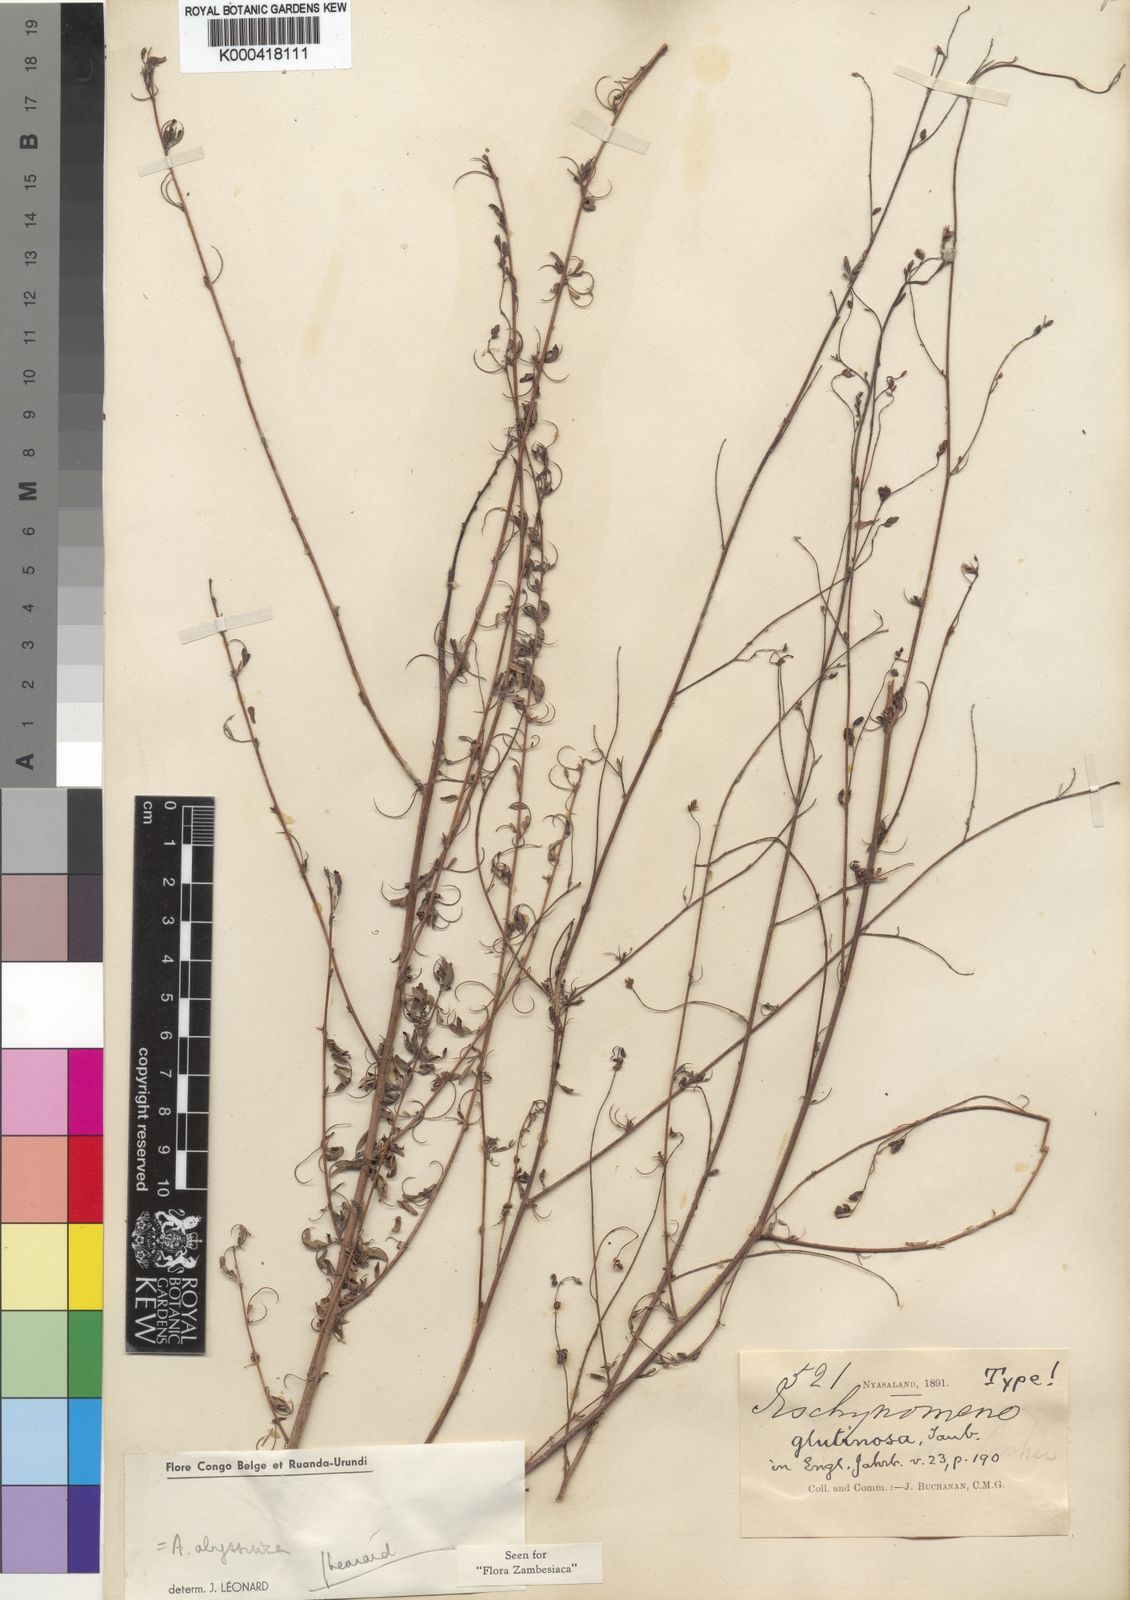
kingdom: Plantae
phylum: Tracheophyta
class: Magnoliopsida
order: Fabales
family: Fabaceae
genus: Aeschynomene
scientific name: Aeschynomene abyssinica
